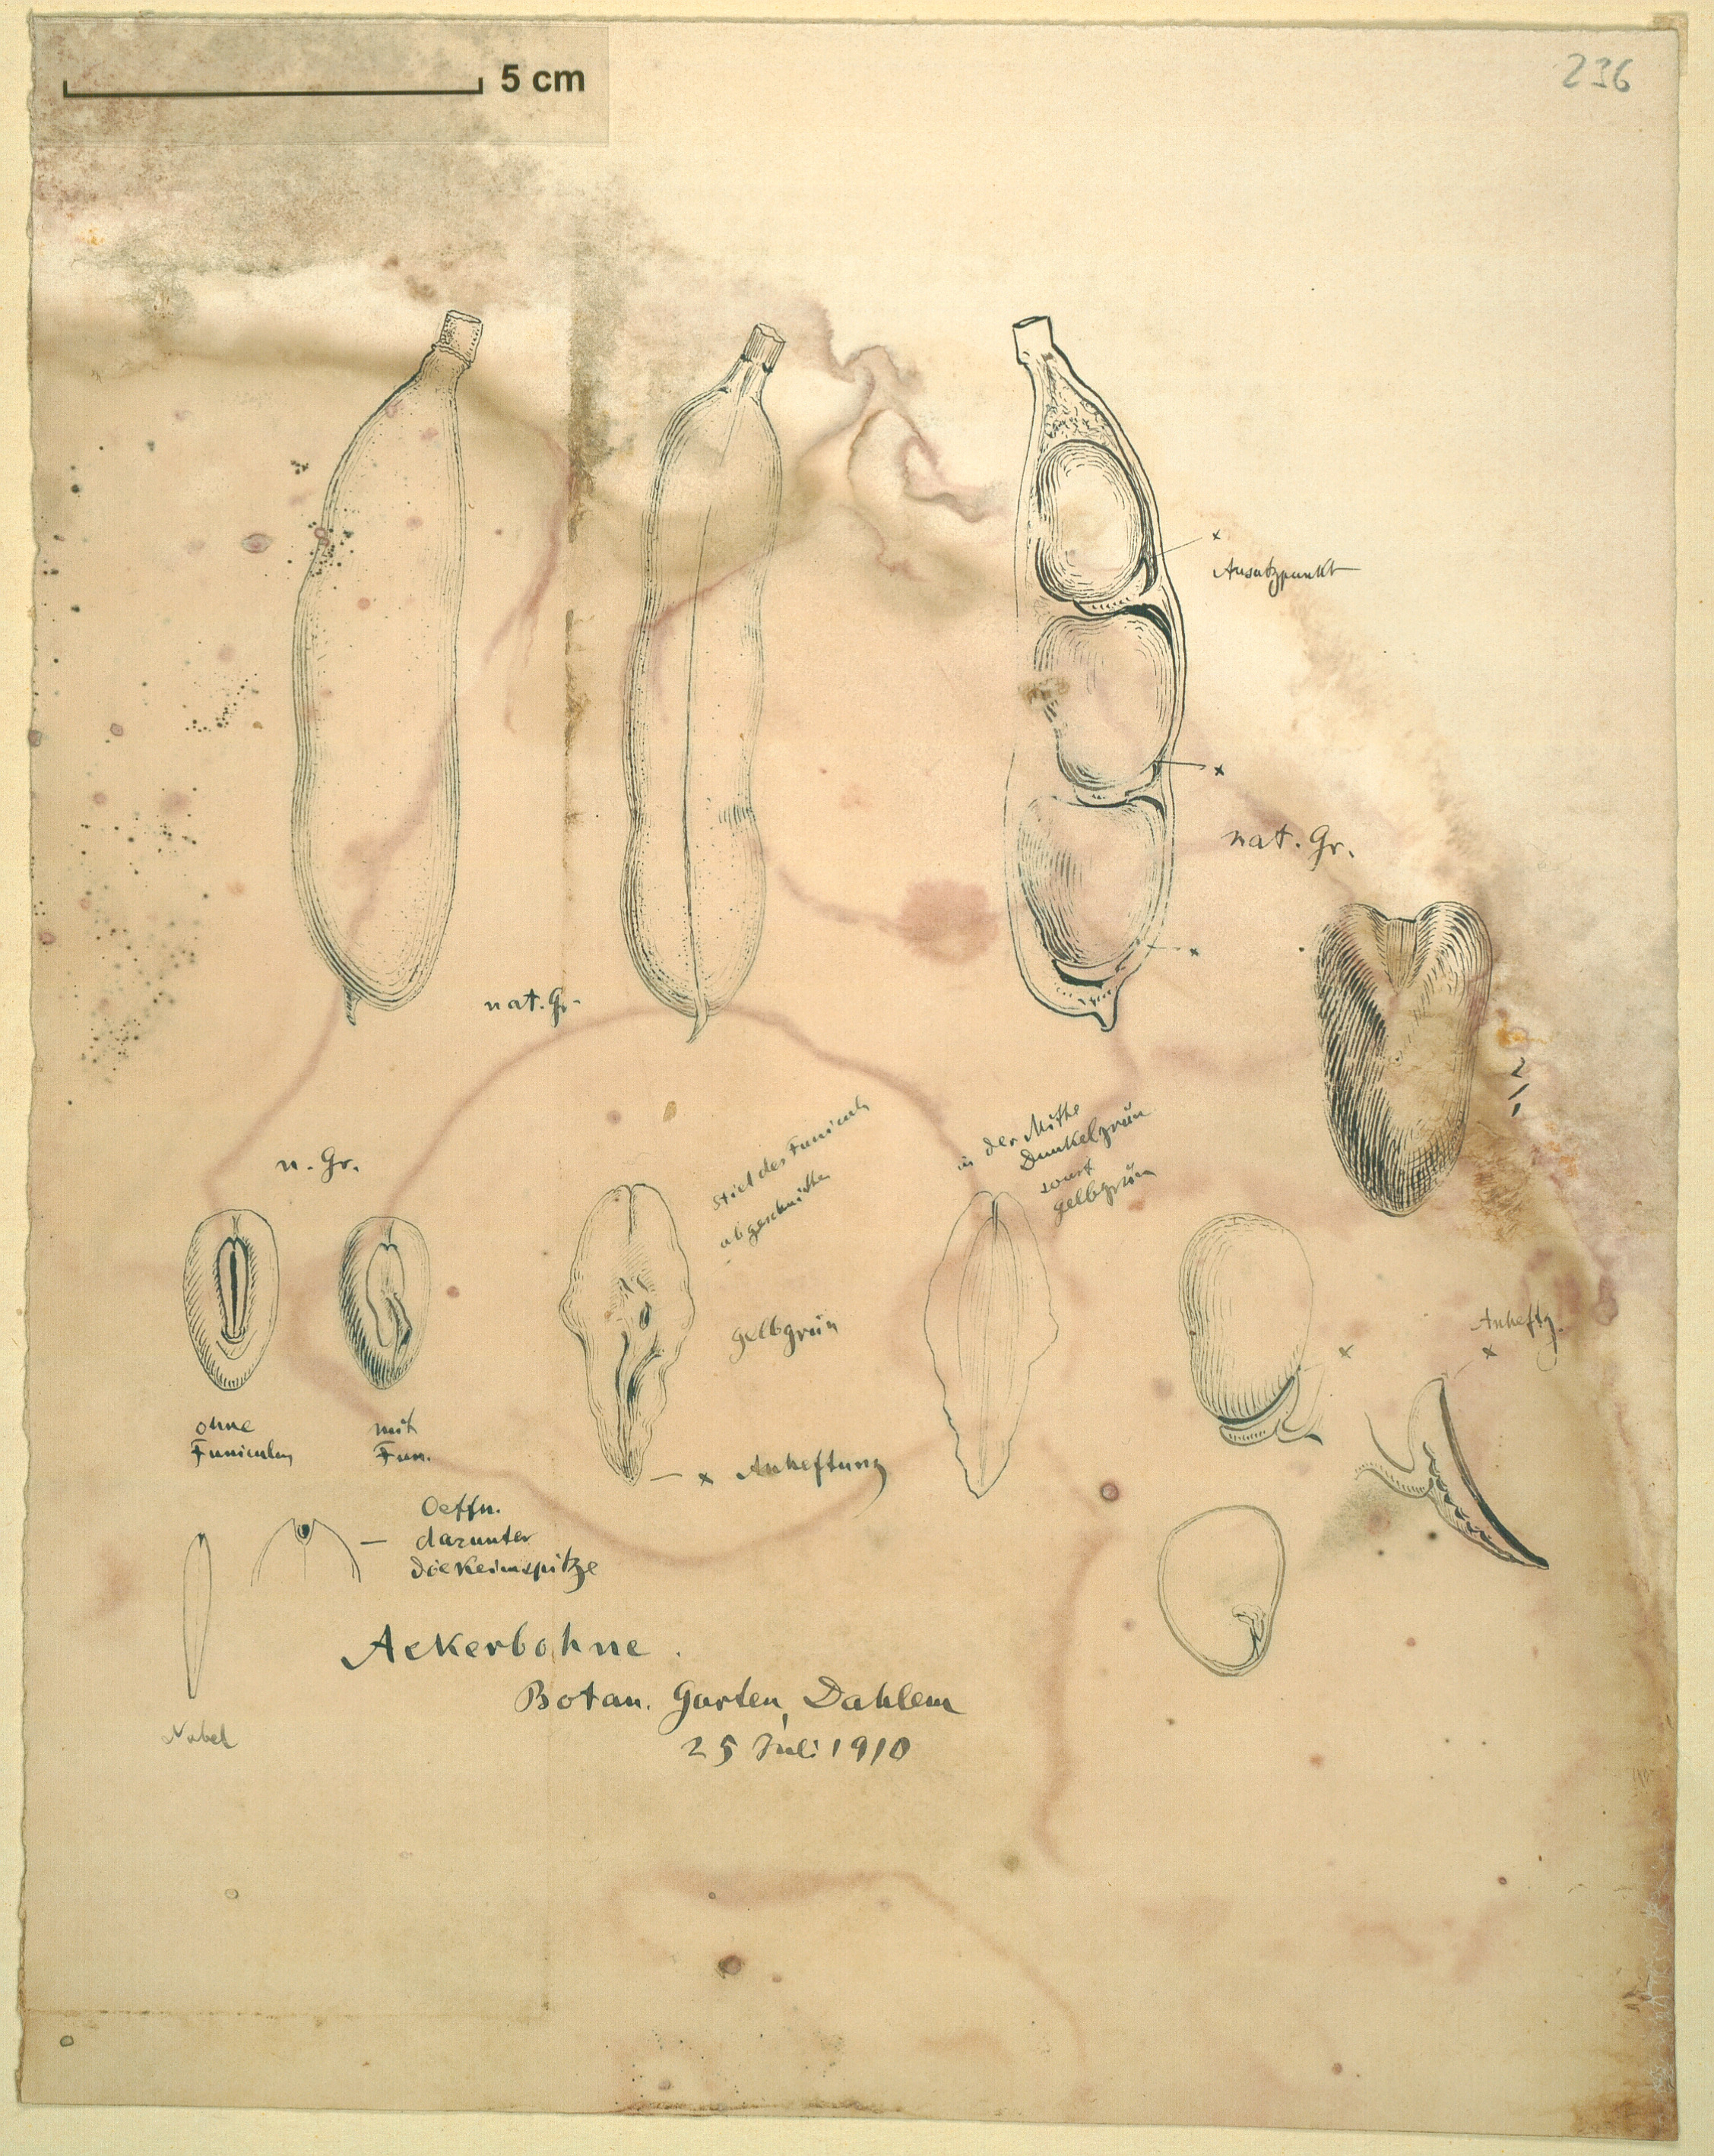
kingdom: Plantae
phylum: Tracheophyta
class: Magnoliopsida
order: Fabales
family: Fabaceae
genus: Vicia
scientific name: Vicia faba
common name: Broad bean
